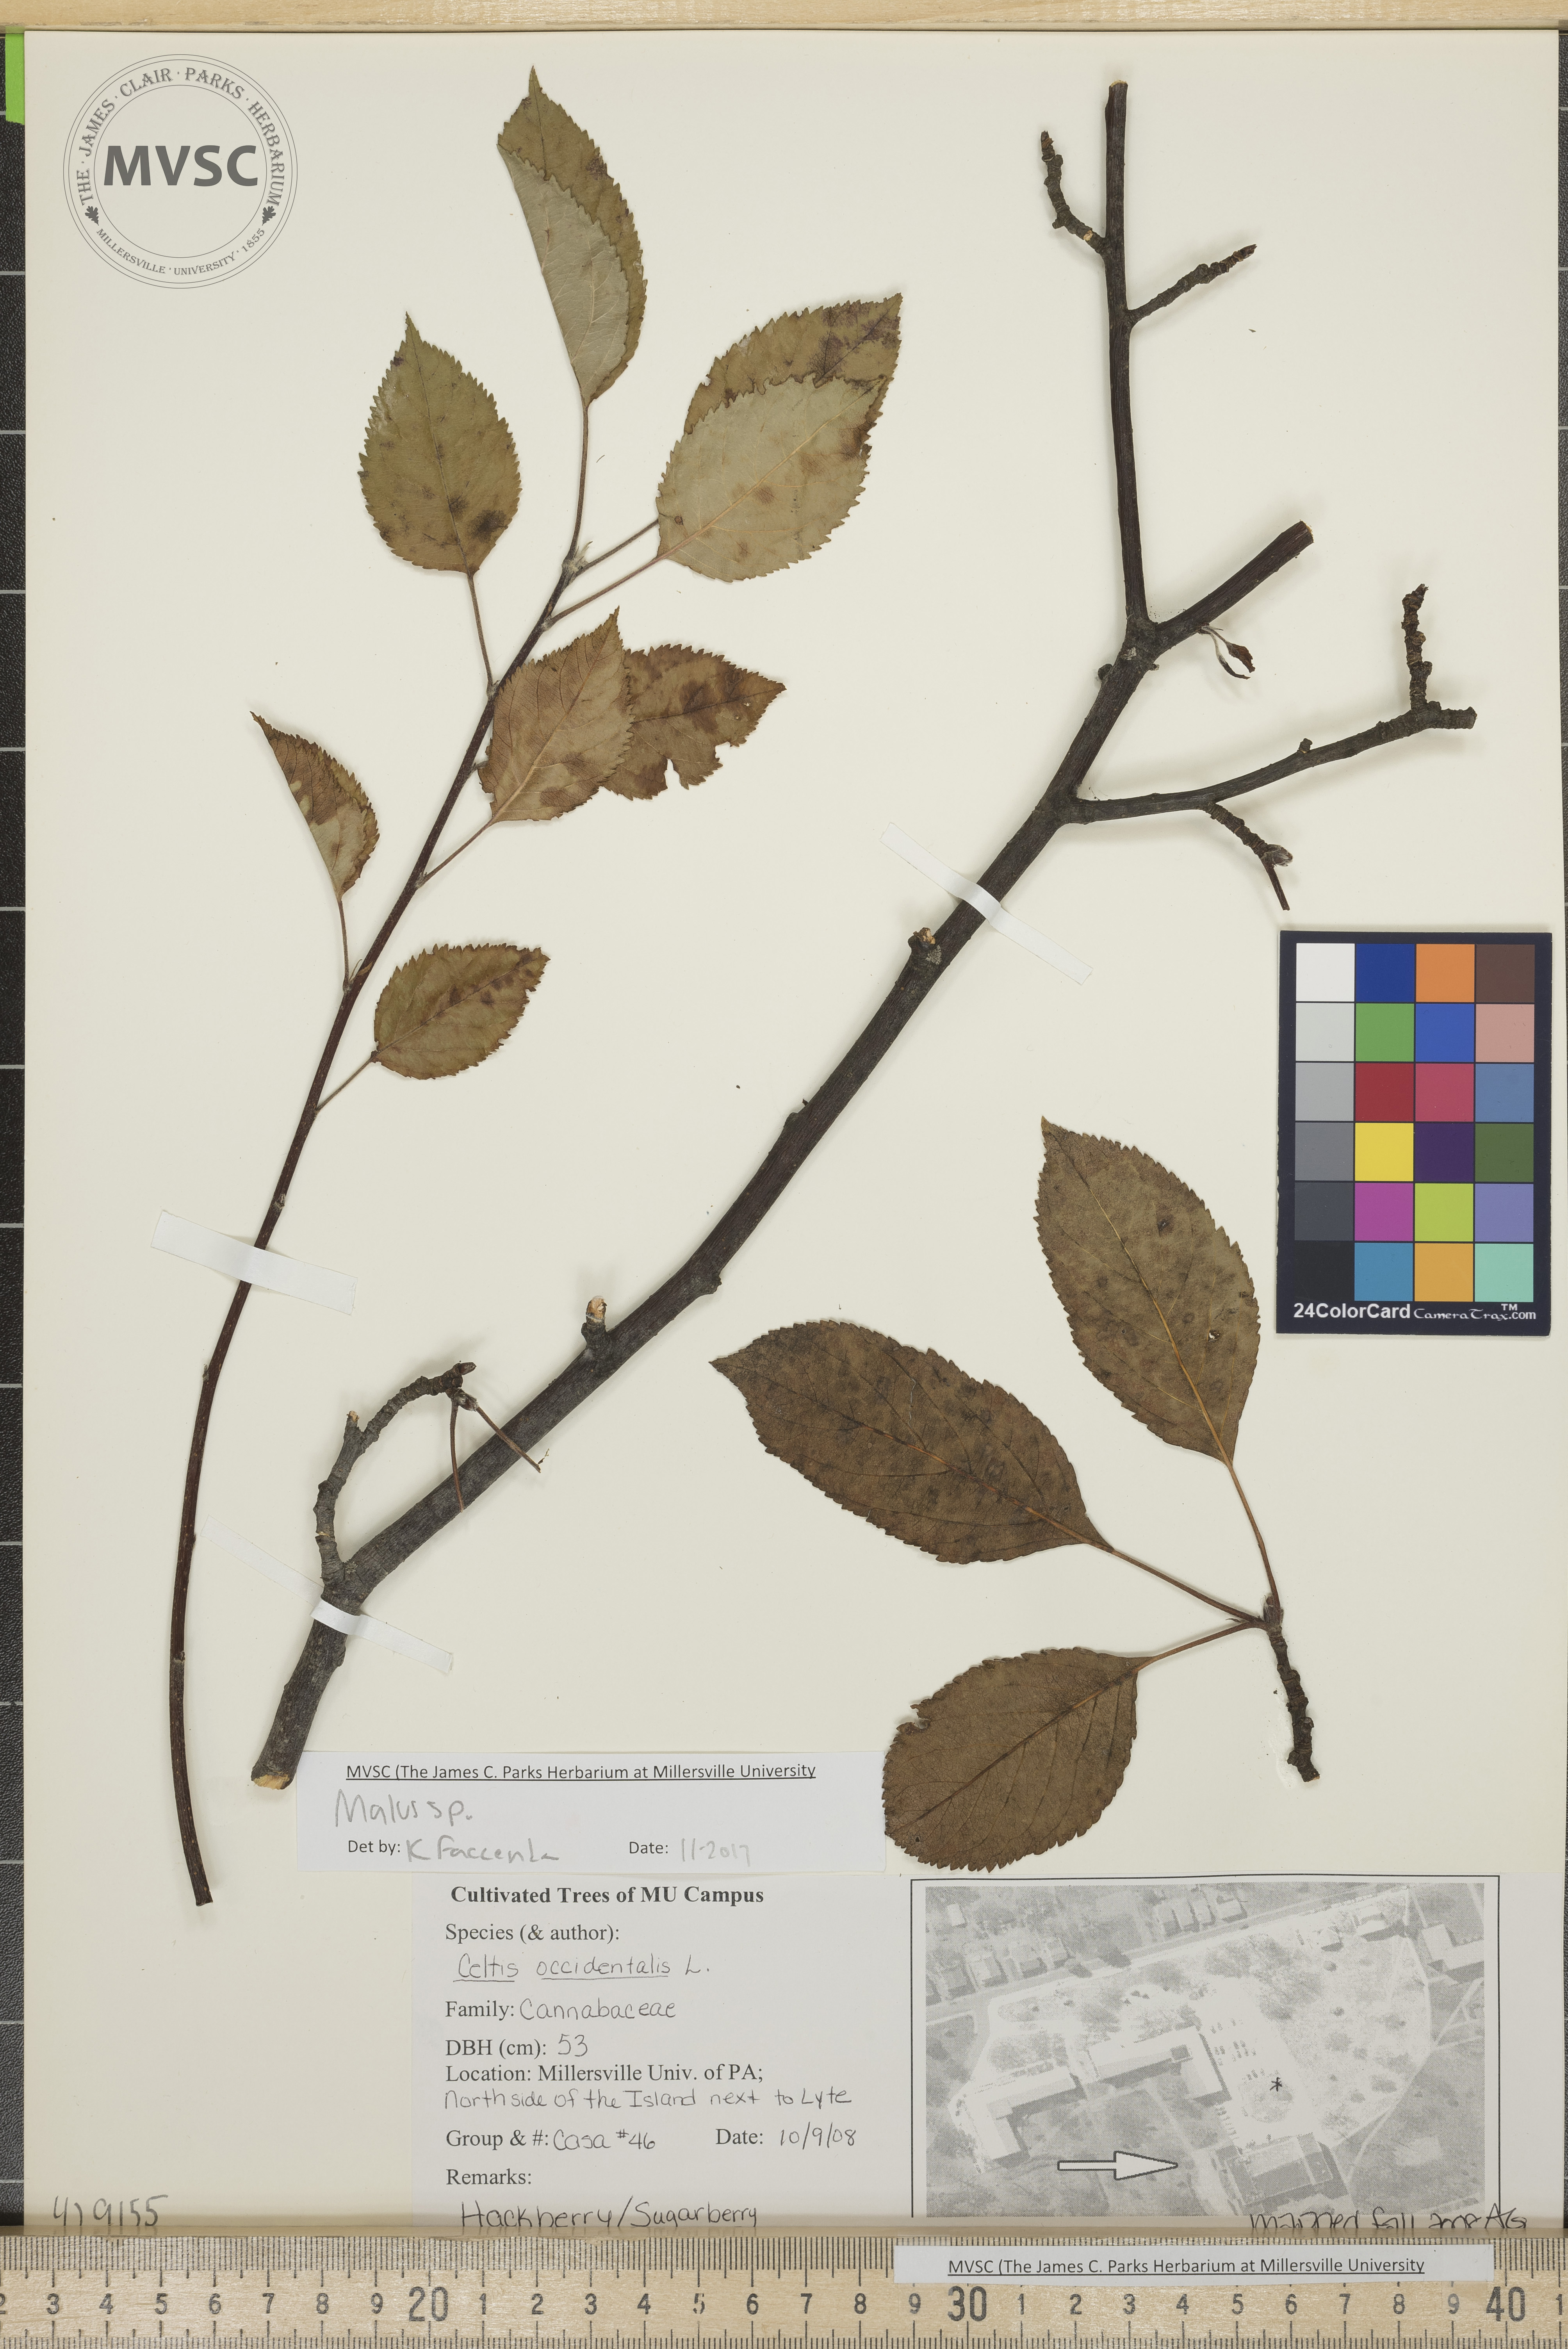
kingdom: Plantae
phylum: Tracheophyta
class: Magnoliopsida
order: Rosales
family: Rosaceae
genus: Malus
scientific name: Malus
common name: Crab apple
